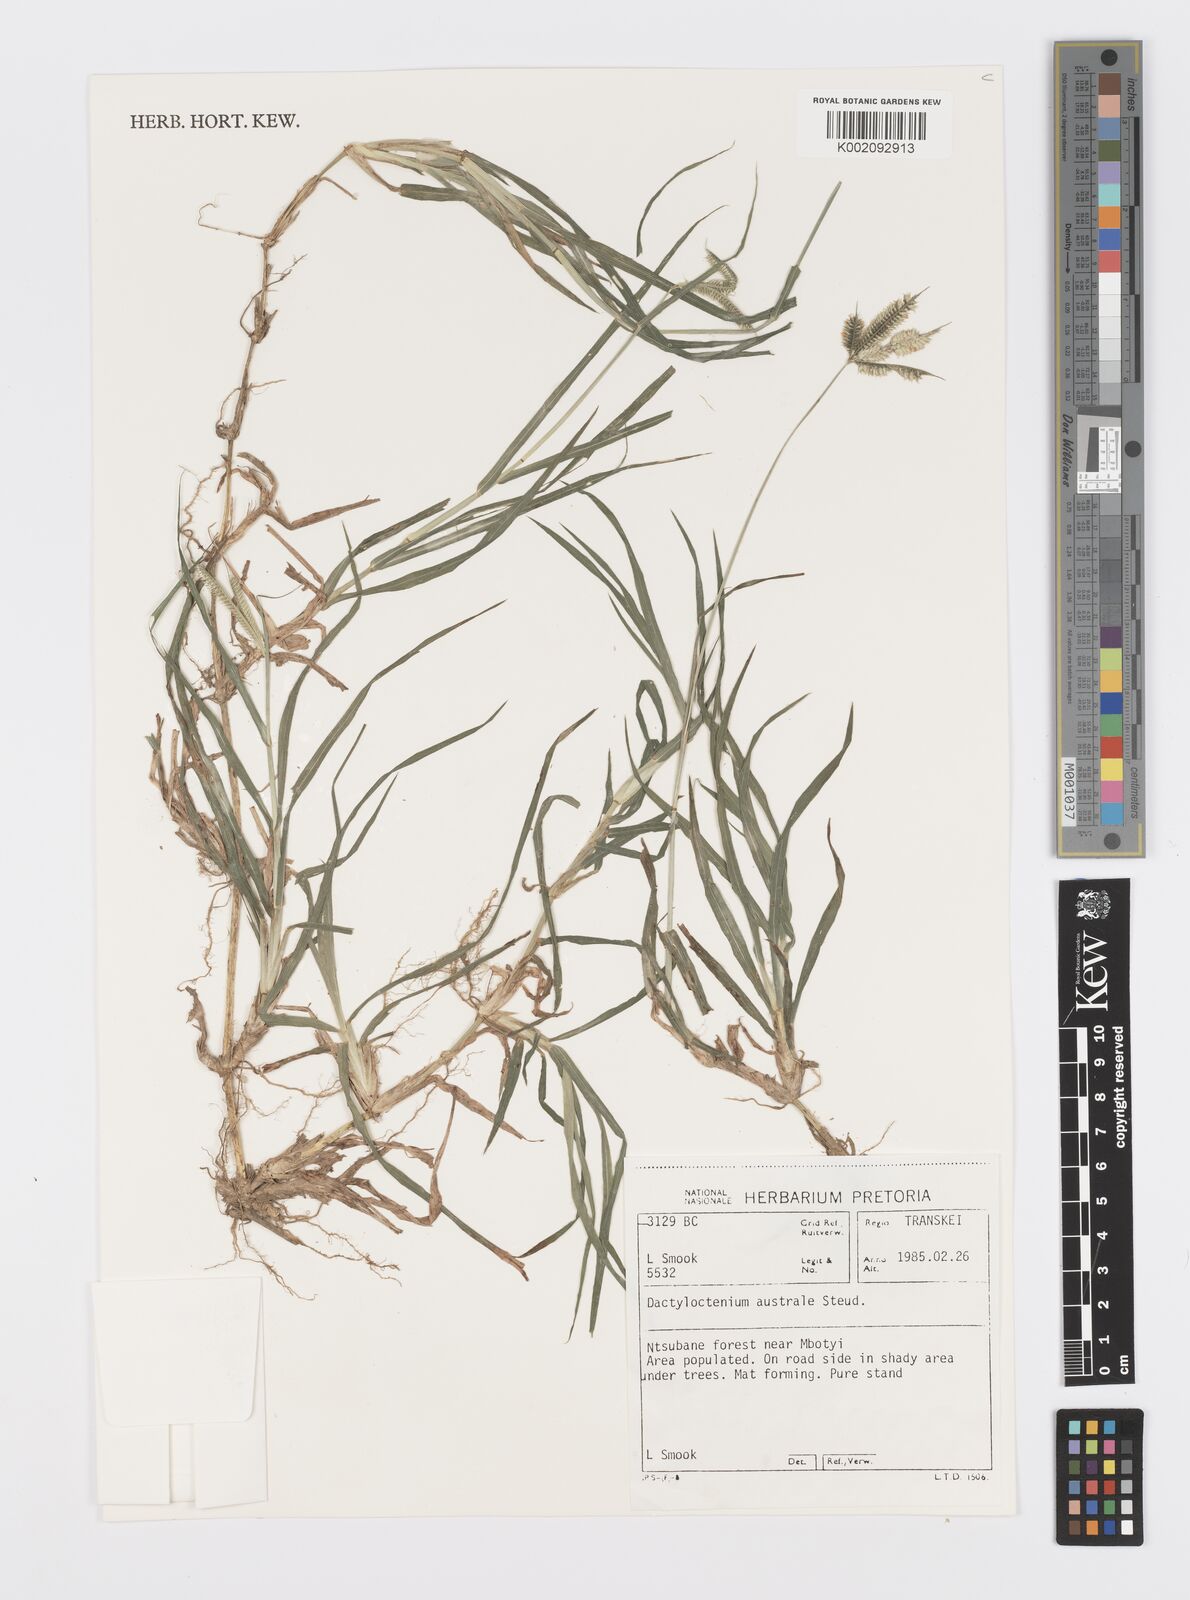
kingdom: Plantae
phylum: Tracheophyta
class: Liliopsida
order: Poales
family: Poaceae
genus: Dactyloctenium
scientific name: Dactyloctenium australe
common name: Durban grass
